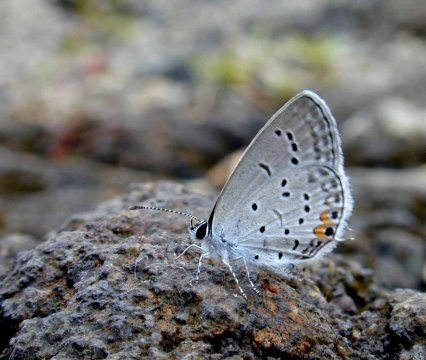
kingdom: Animalia
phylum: Arthropoda
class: Insecta
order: Lepidoptera
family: Lycaenidae
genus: Elkalyce
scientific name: Elkalyce comyntas
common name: Eastern Tailed-Blue
